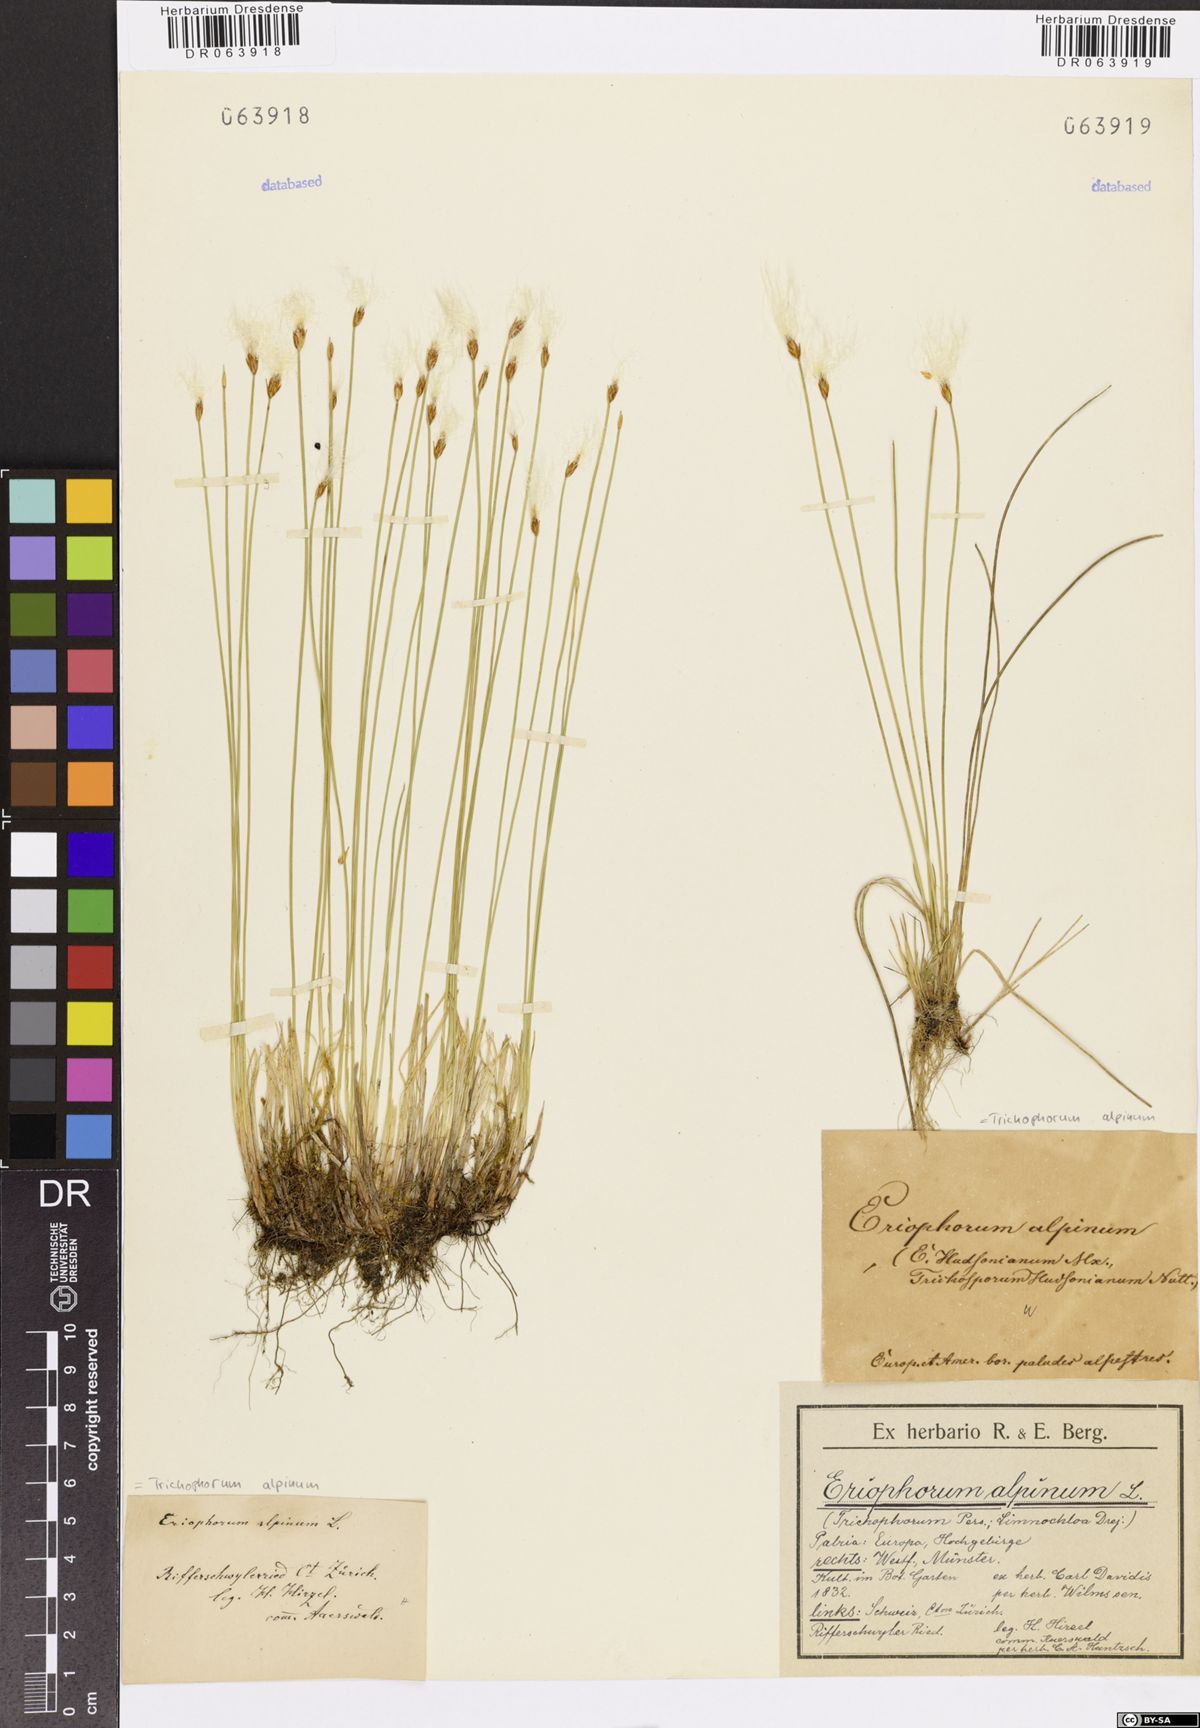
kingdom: Plantae
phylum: Tracheophyta
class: Liliopsida
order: Poales
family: Cyperaceae
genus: Trichophorum
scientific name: Trichophorum alpinum
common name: Alpine bulrush
